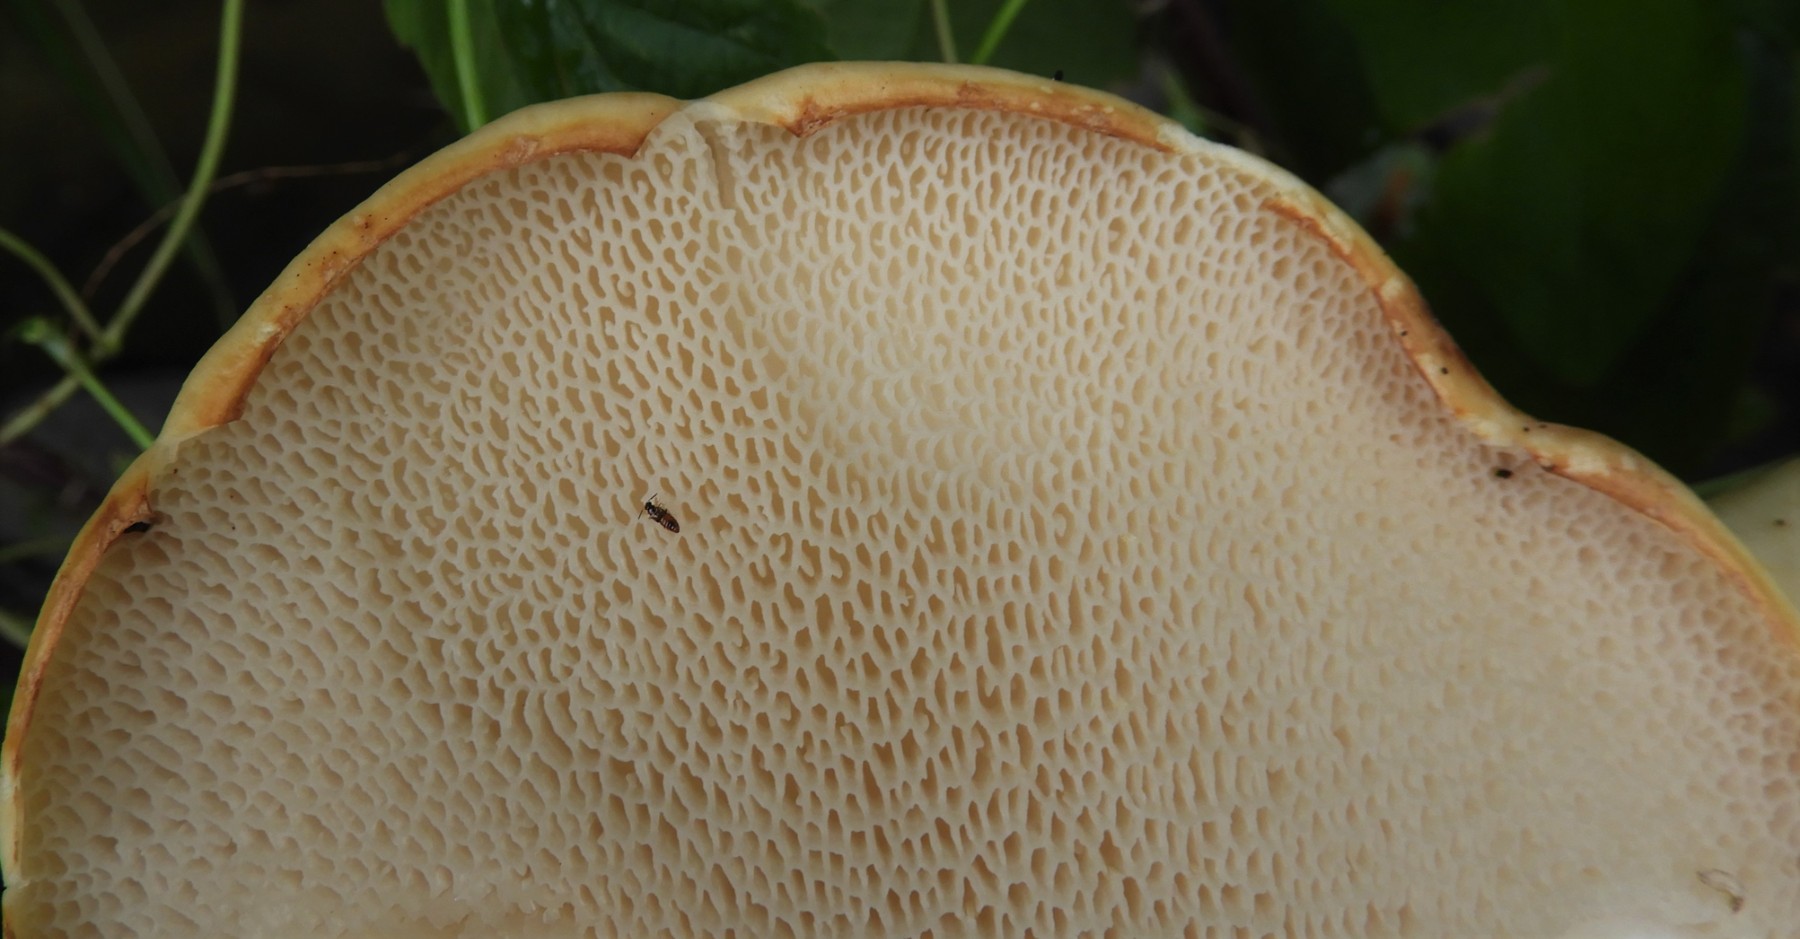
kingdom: Fungi
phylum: Basidiomycota
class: Agaricomycetes
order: Polyporales
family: Polyporaceae
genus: Cerioporus
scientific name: Cerioporus squamosus
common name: skællet stilkporesvamp
